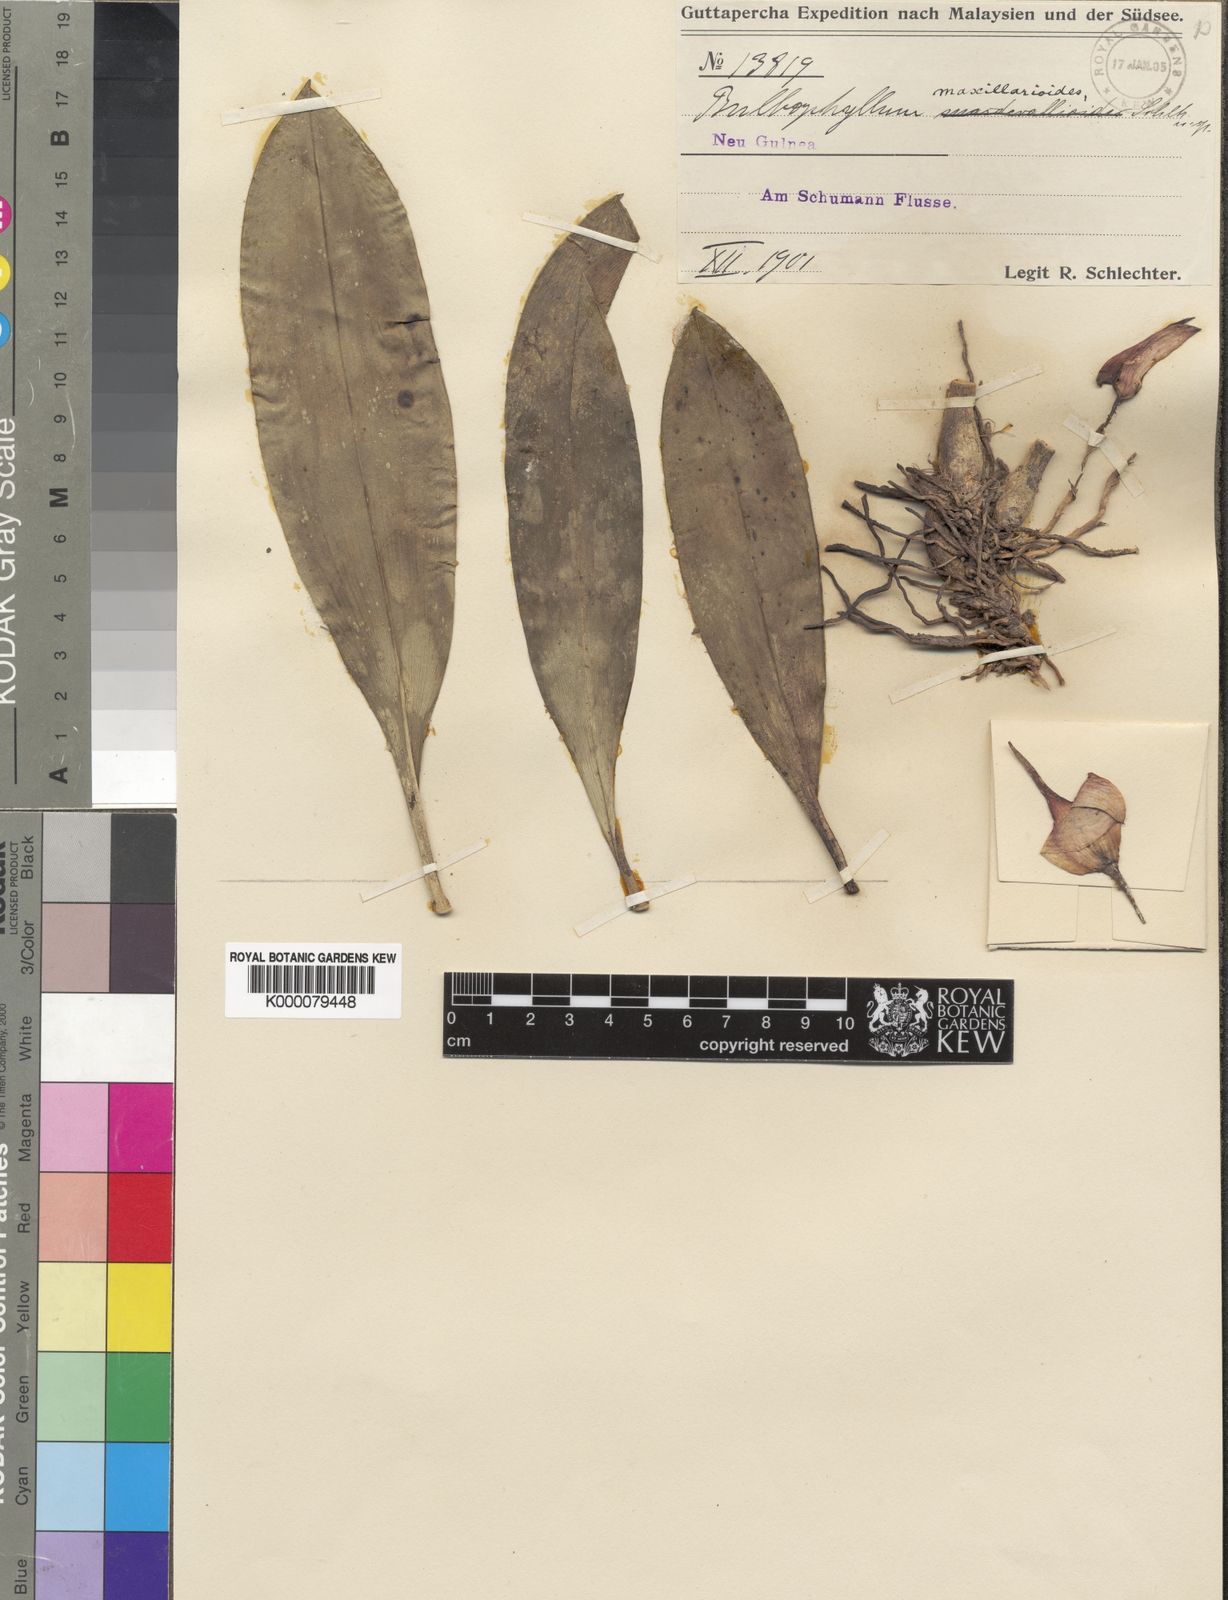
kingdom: Plantae
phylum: Tracheophyta
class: Liliopsida
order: Asparagales
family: Orchidaceae
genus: Bulbophyllum
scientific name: Bulbophyllum maxillarioides
